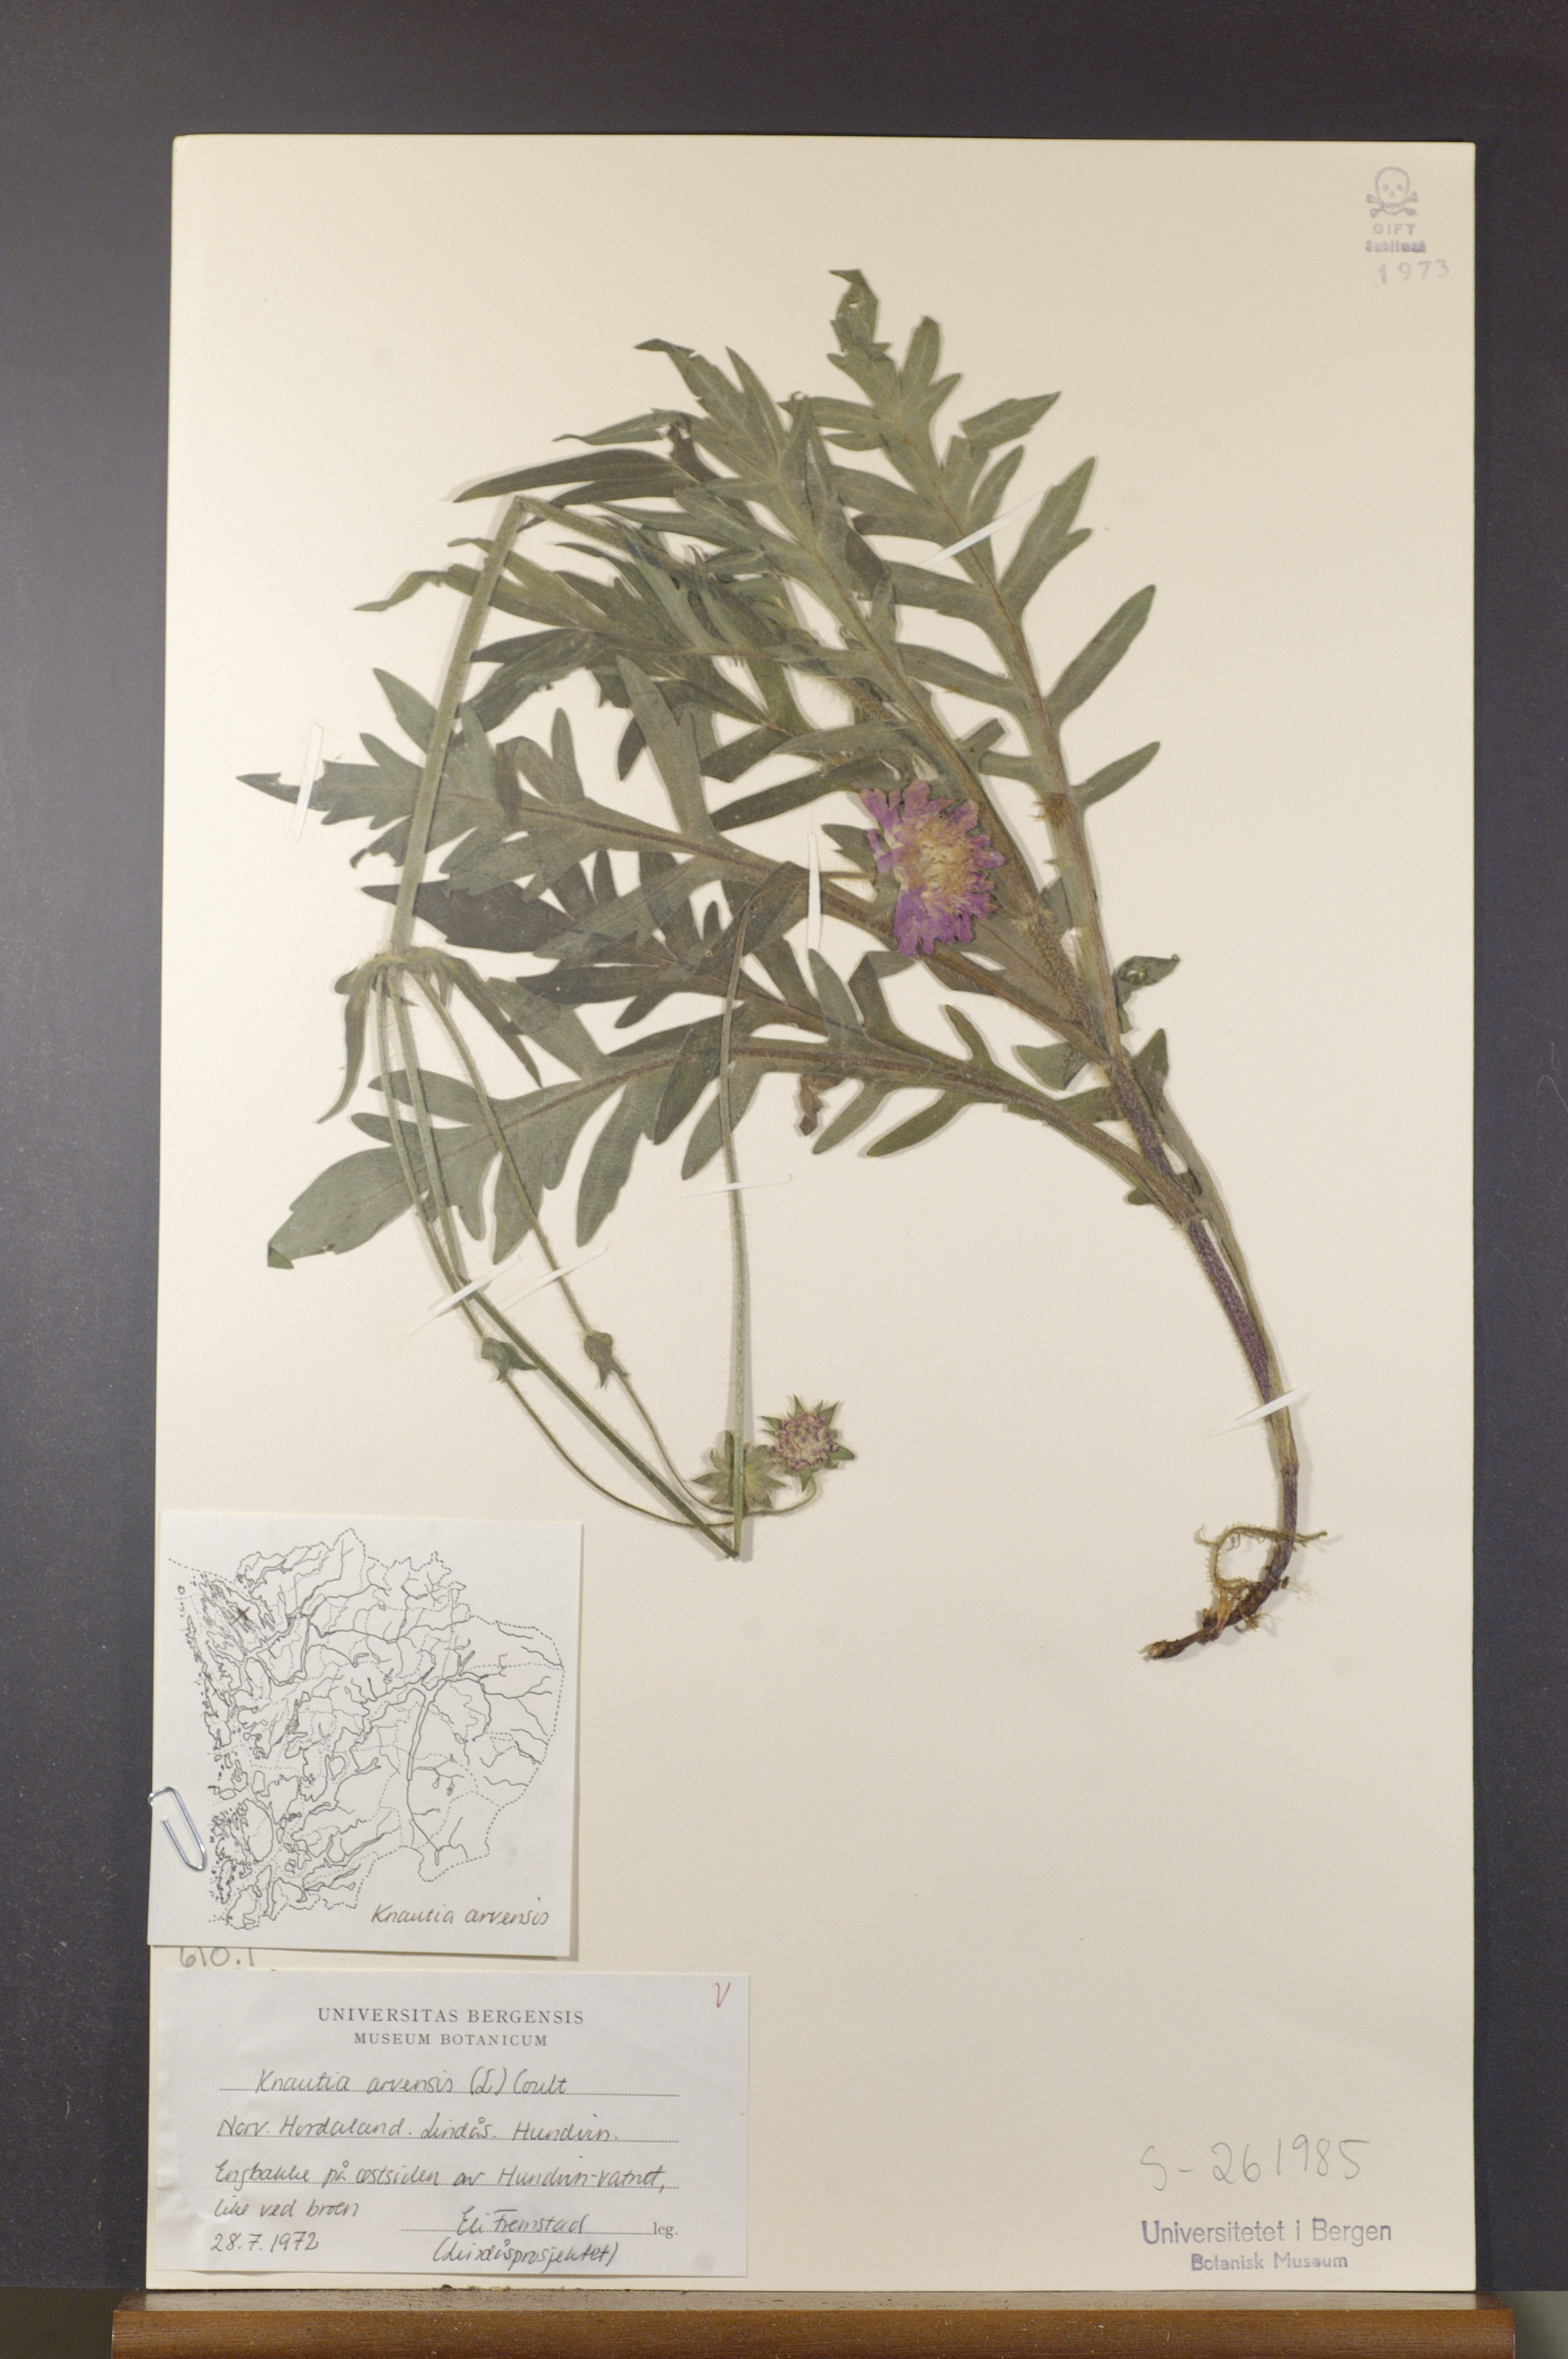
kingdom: Plantae
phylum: Tracheophyta
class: Magnoliopsida
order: Dipsacales
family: Caprifoliaceae
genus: Knautia
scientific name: Knautia arvensis
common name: Field scabiosa
